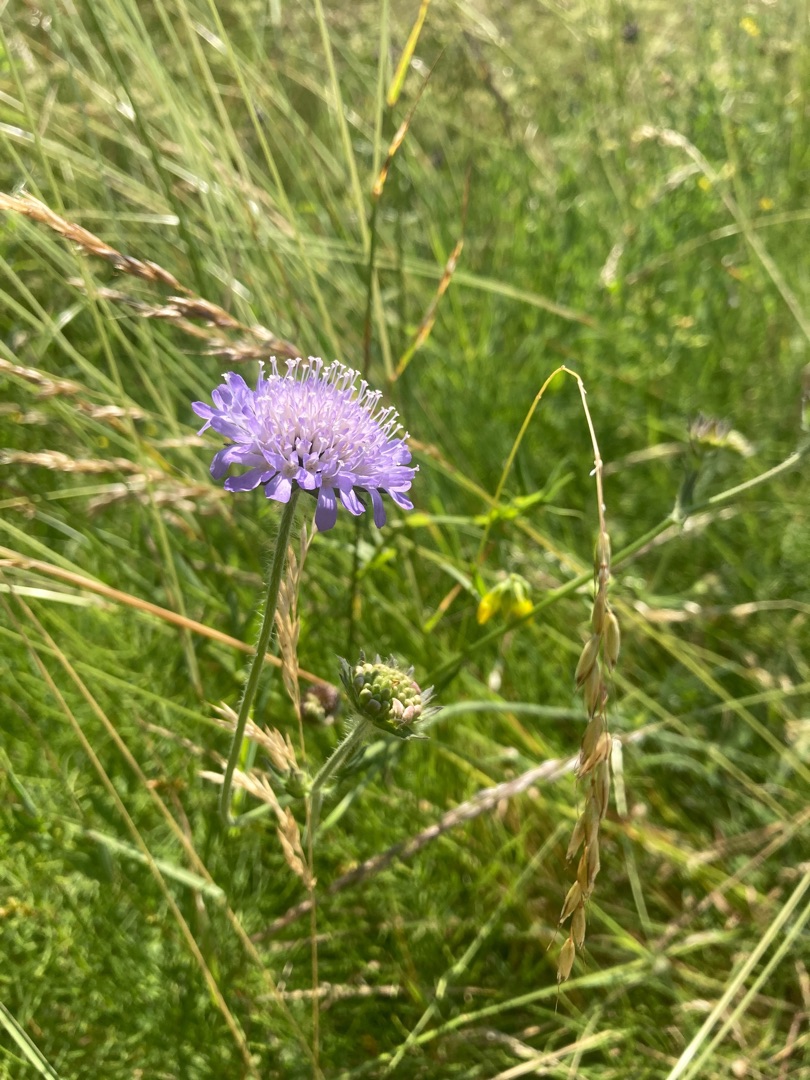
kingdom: Plantae
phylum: Tracheophyta
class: Magnoliopsida
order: Dipsacales
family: Caprifoliaceae
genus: Knautia
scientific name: Knautia arvensis
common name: Blåhat
